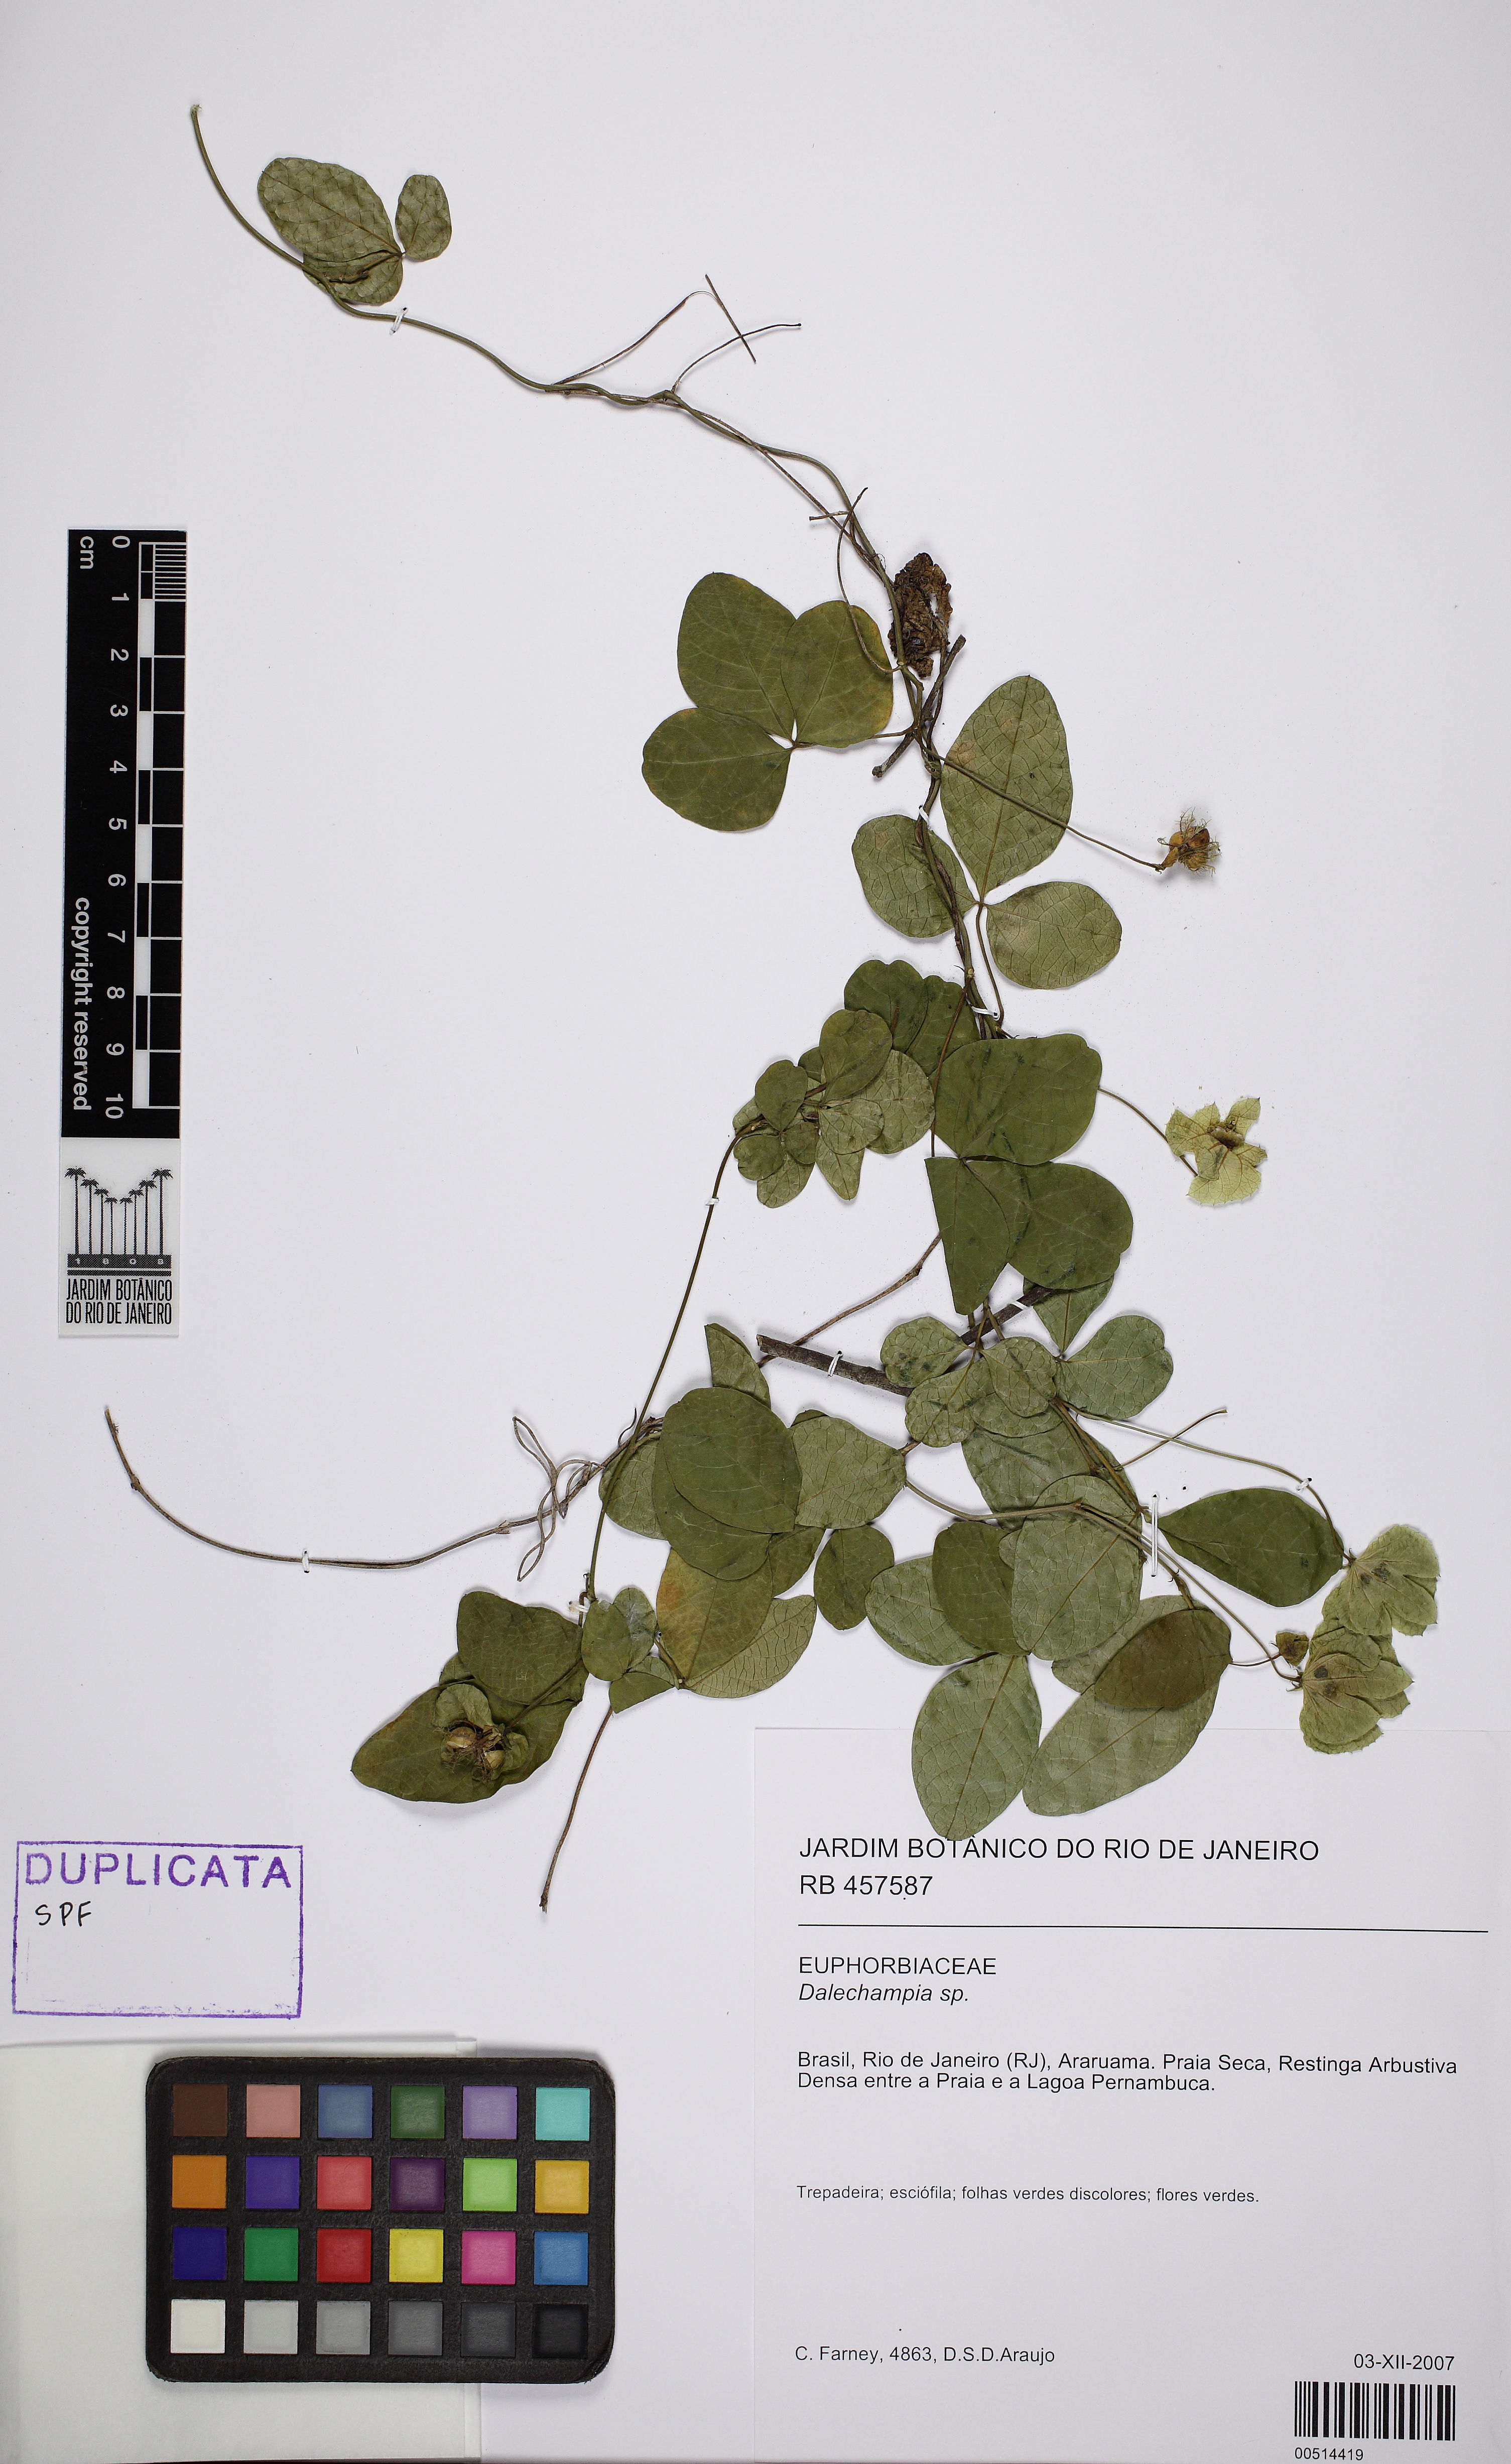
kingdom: Plantae
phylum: Tracheophyta
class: Magnoliopsida
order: Malpighiales
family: Euphorbiaceae
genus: Dalechampia
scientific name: Dalechampia micromeria
